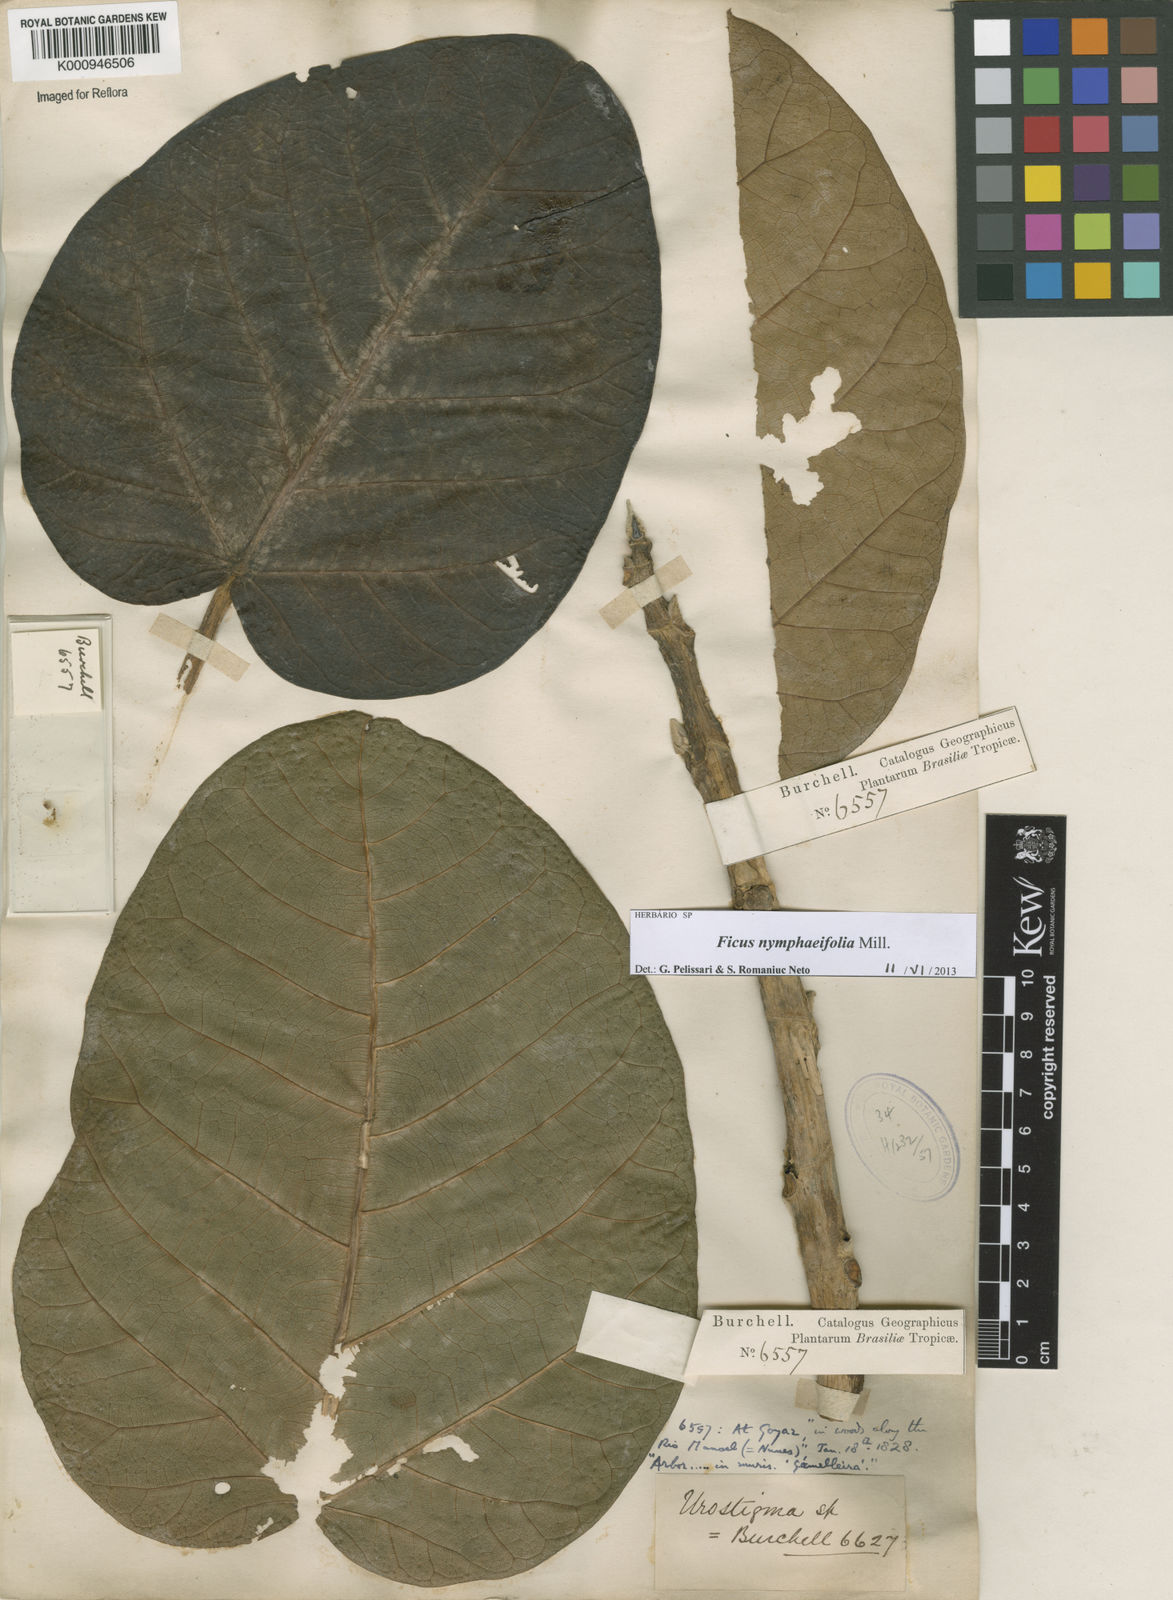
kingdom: Plantae
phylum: Tracheophyta
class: Magnoliopsida
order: Rosales
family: Moraceae
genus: Ficus
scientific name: Ficus nymphaeifolia
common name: Fig
